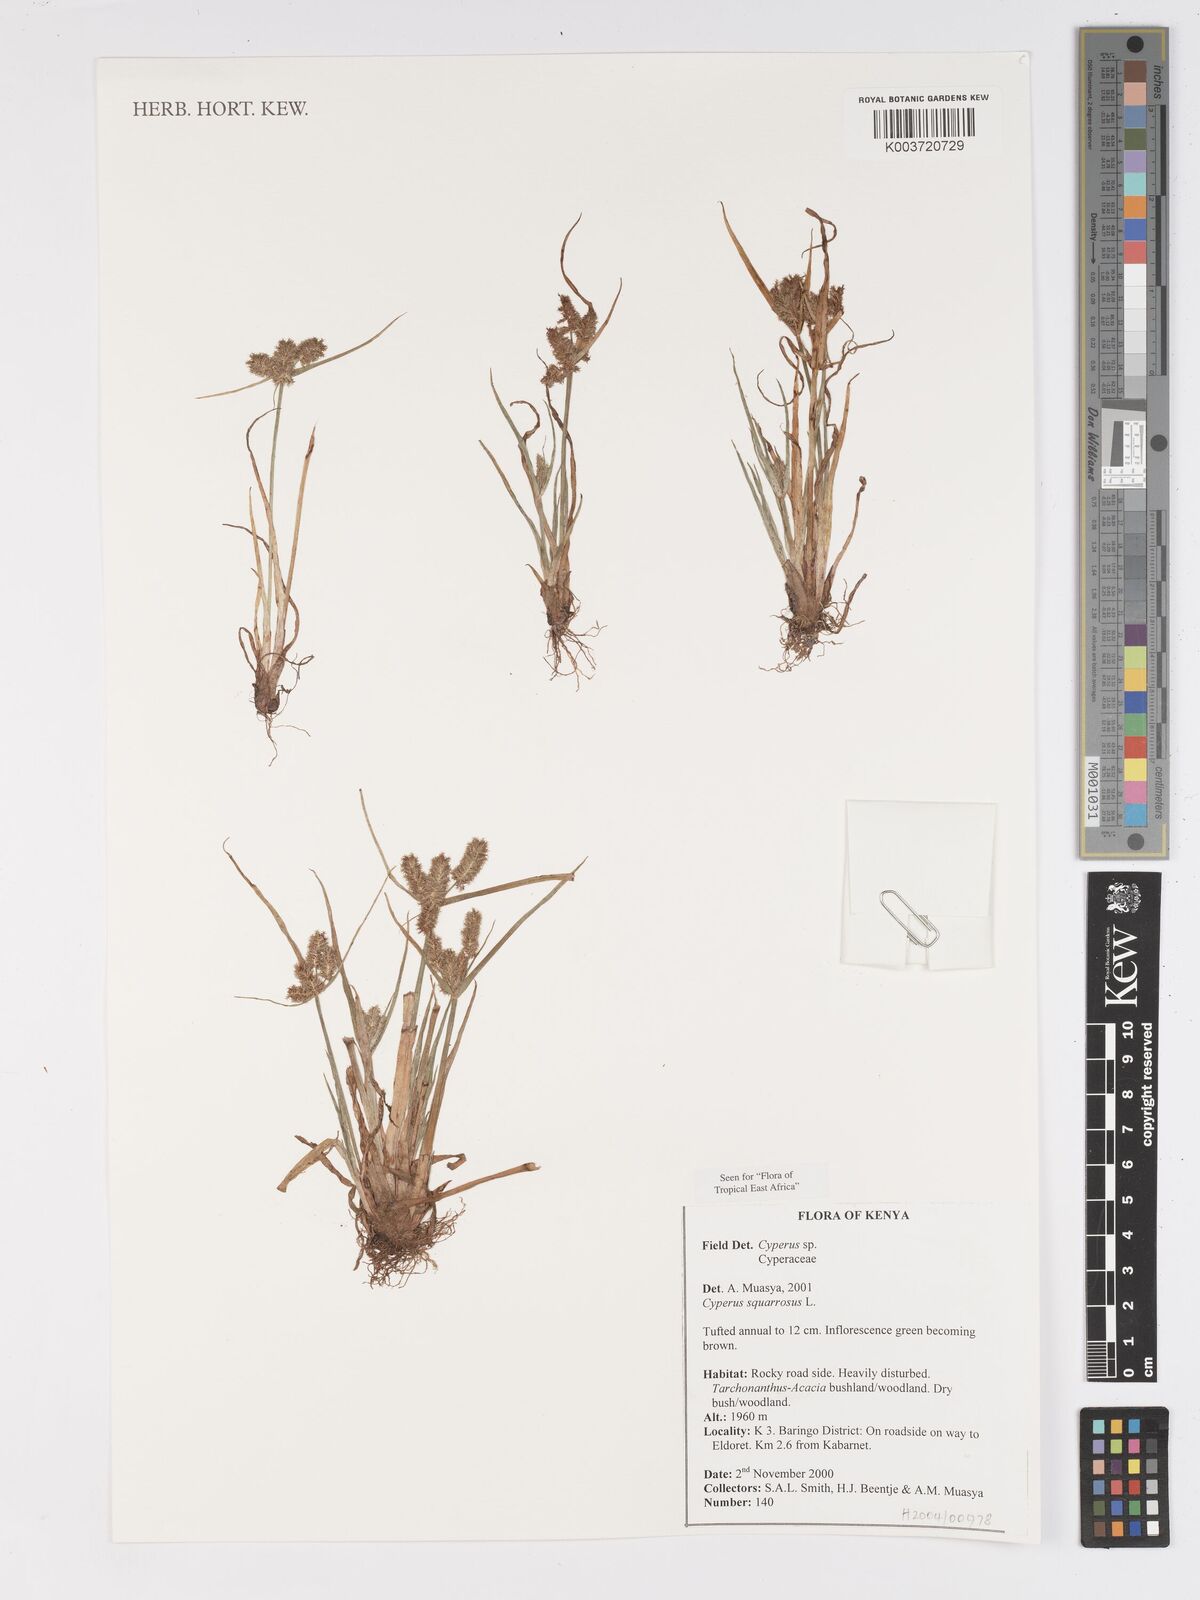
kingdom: Plantae
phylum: Tracheophyta
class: Liliopsida
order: Poales
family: Cyperaceae
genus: Cyperus
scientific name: Cyperus squarrosus
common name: Awned cyperus
